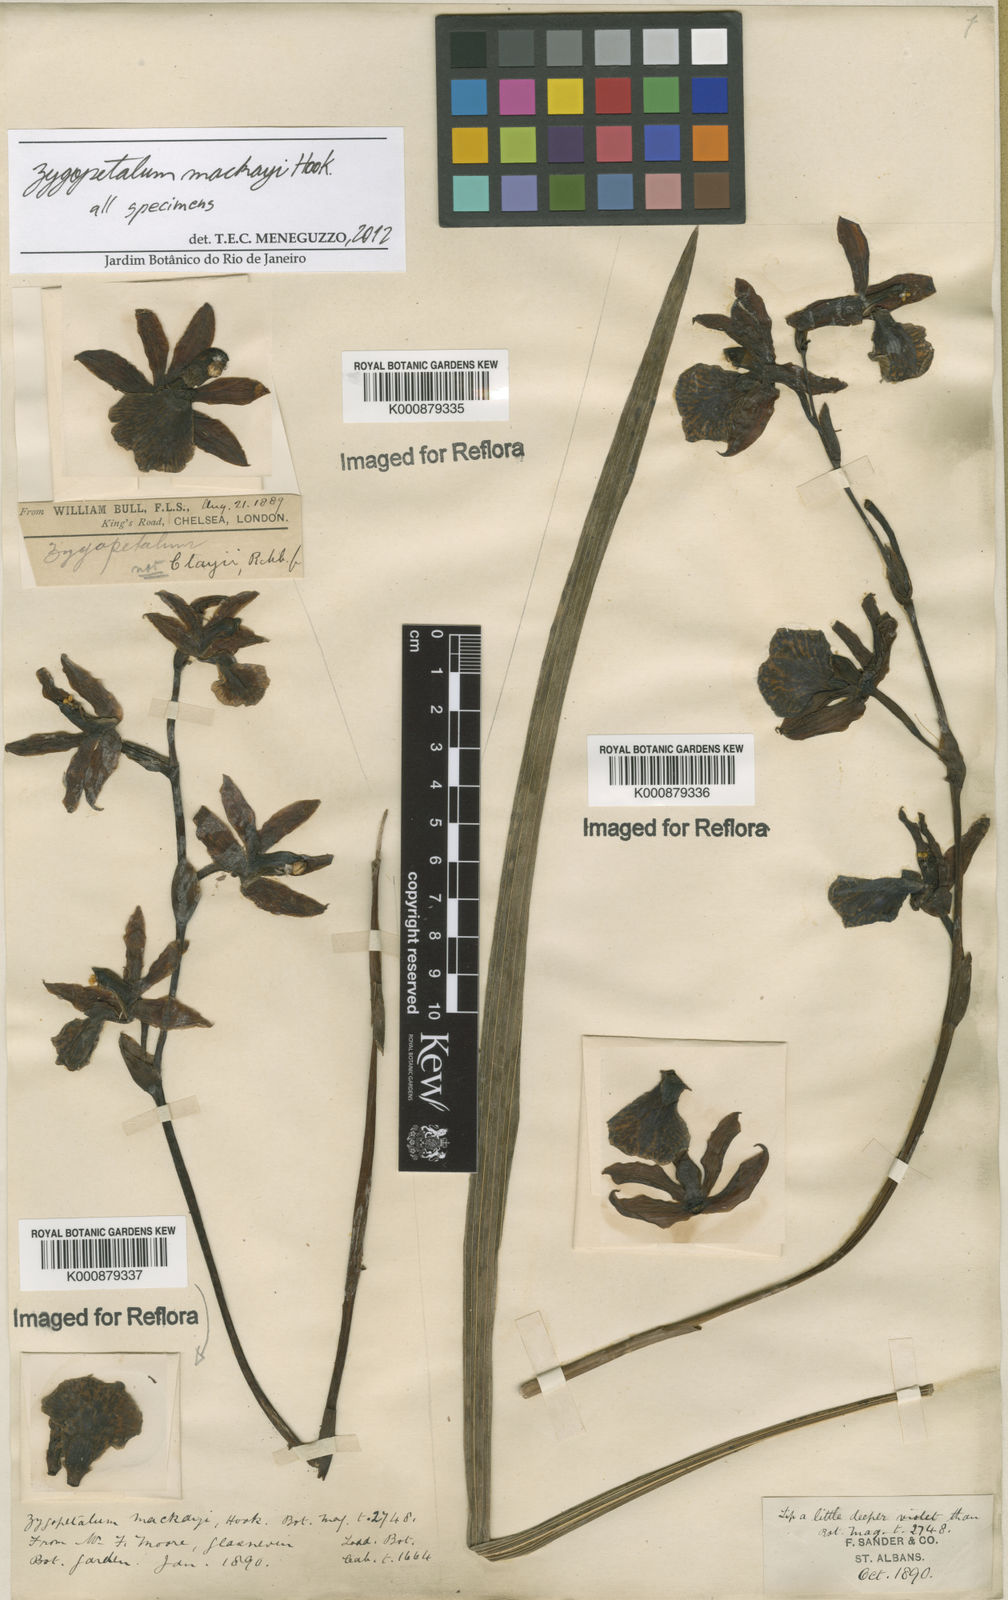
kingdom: Plantae
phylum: Tracheophyta
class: Liliopsida
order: Asparagales
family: Orchidaceae
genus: Zygopetalum
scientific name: Zygopetalum maculatum
